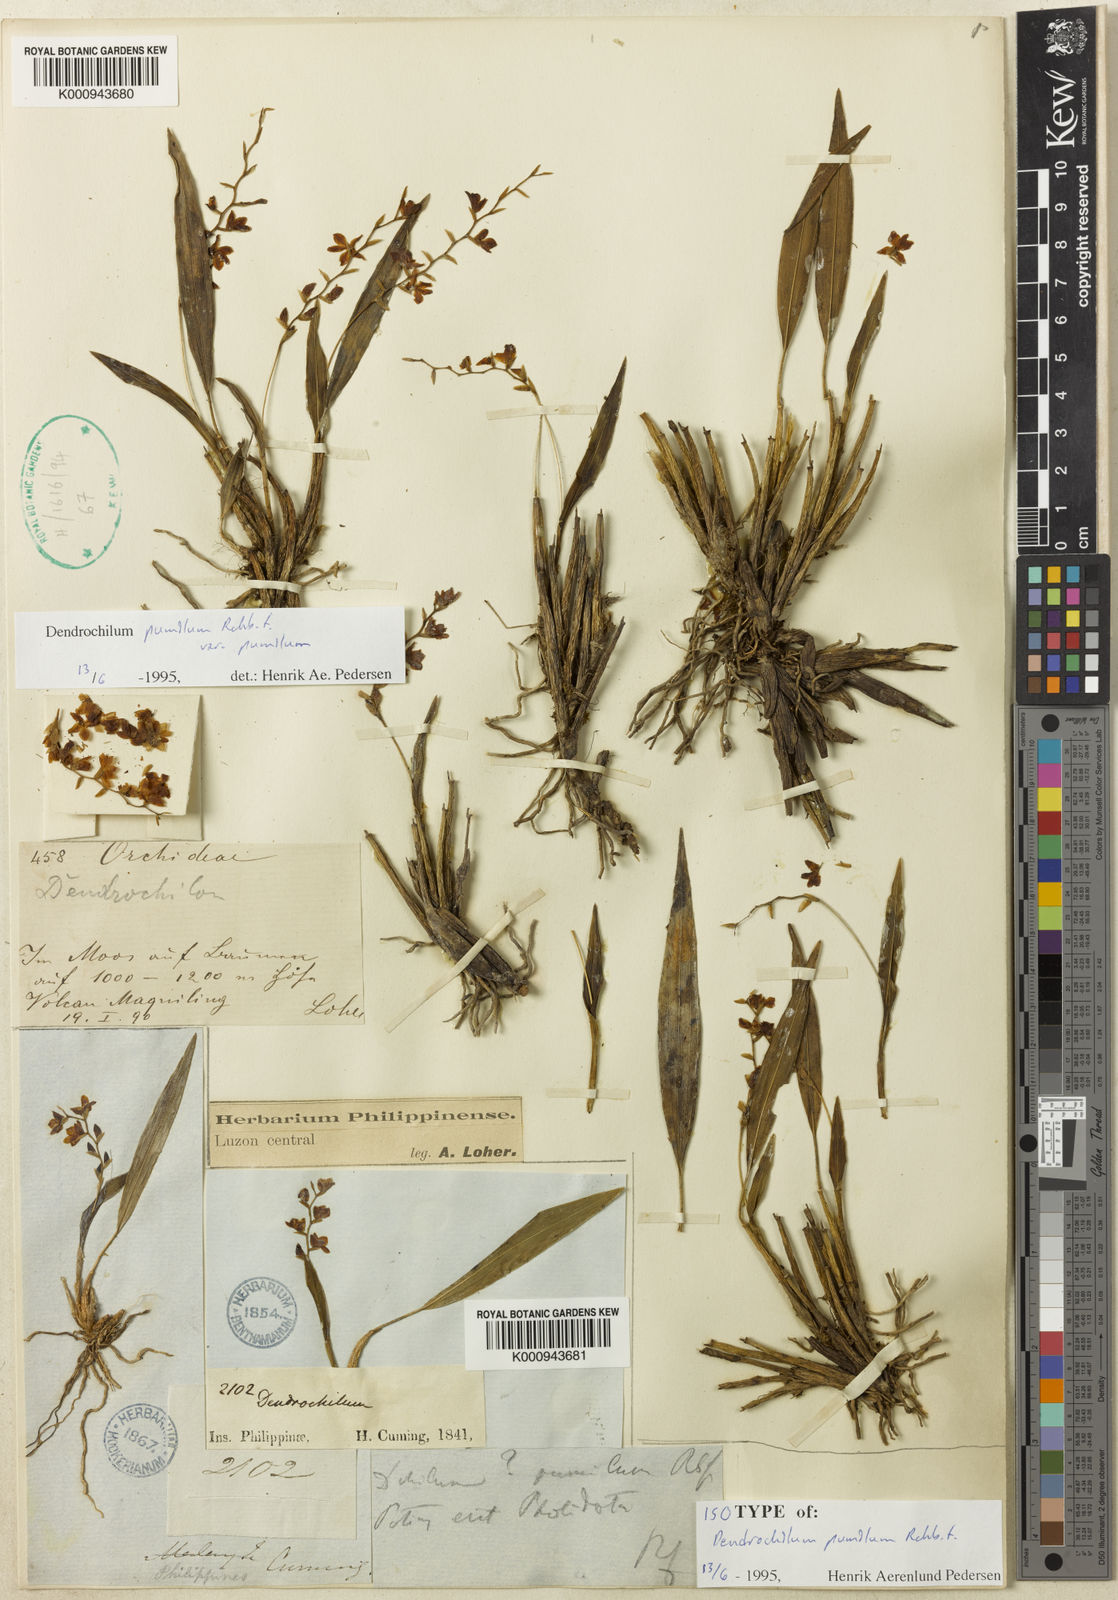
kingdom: Plantae
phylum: Tracheophyta
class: Liliopsida
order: Asparagales
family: Orchidaceae
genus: Coelogyne
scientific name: Coelogyne pumila
